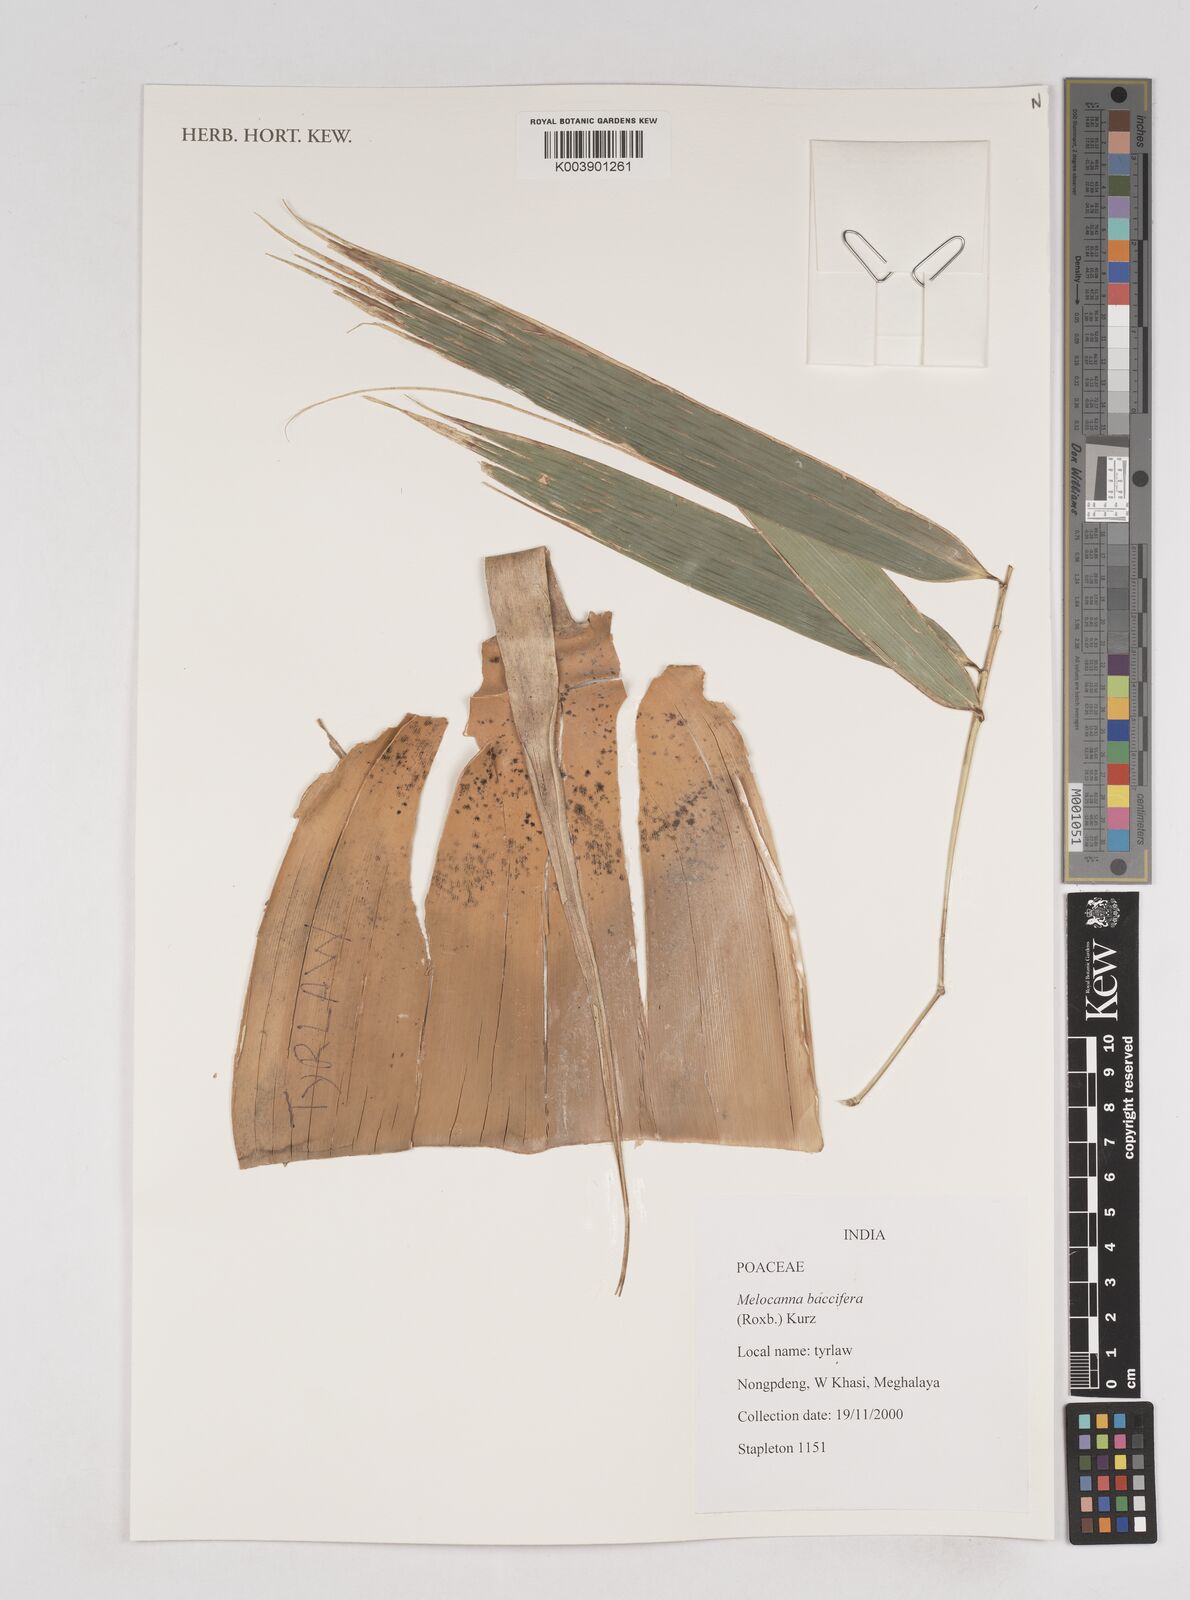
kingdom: Plantae
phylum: Tracheophyta
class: Liliopsida
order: Poales
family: Poaceae
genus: Melocanna
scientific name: Melocanna baccifera
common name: Berry bamboo
